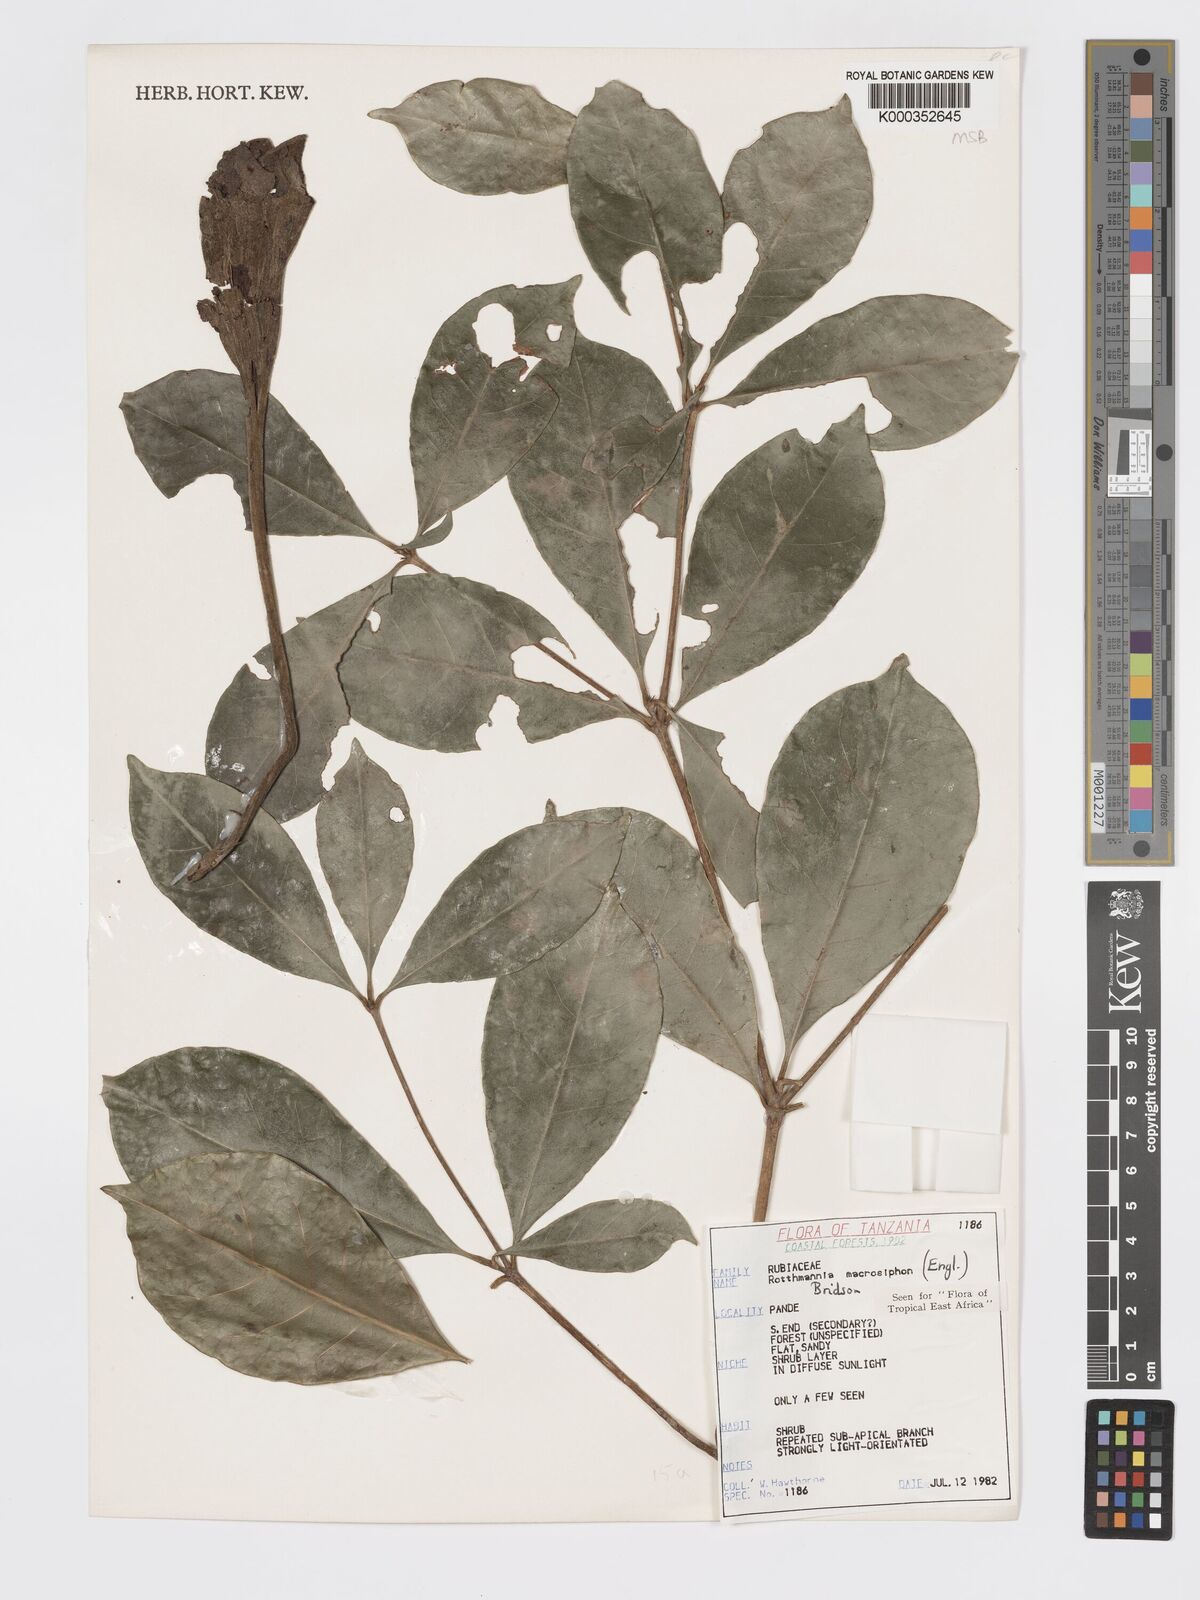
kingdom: Plantae
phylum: Tracheophyta
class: Magnoliopsida
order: Gentianales
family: Rubiaceae
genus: Rothmannia
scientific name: Rothmannia macrosiphon
